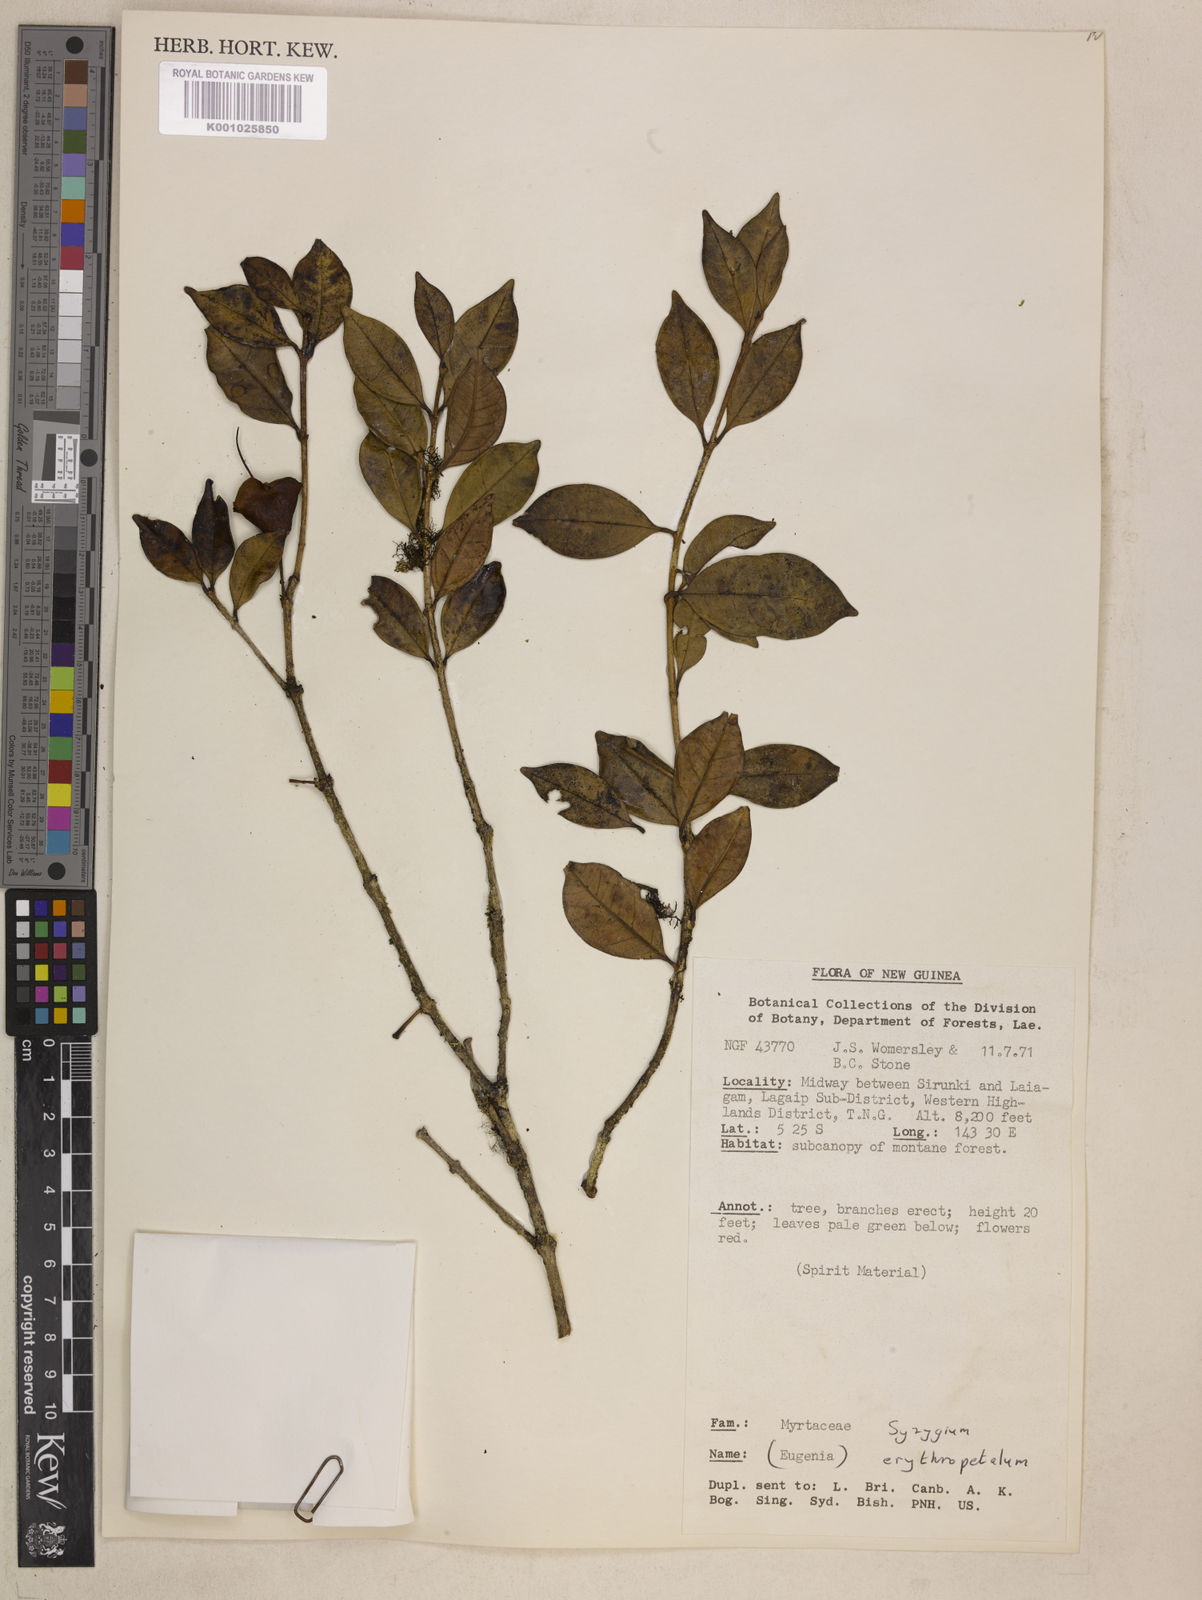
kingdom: Plantae
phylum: Tracheophyta
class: Magnoliopsida
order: Myrtales
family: Myrtaceae
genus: Syzygium
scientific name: Syzygium erythropetalum
